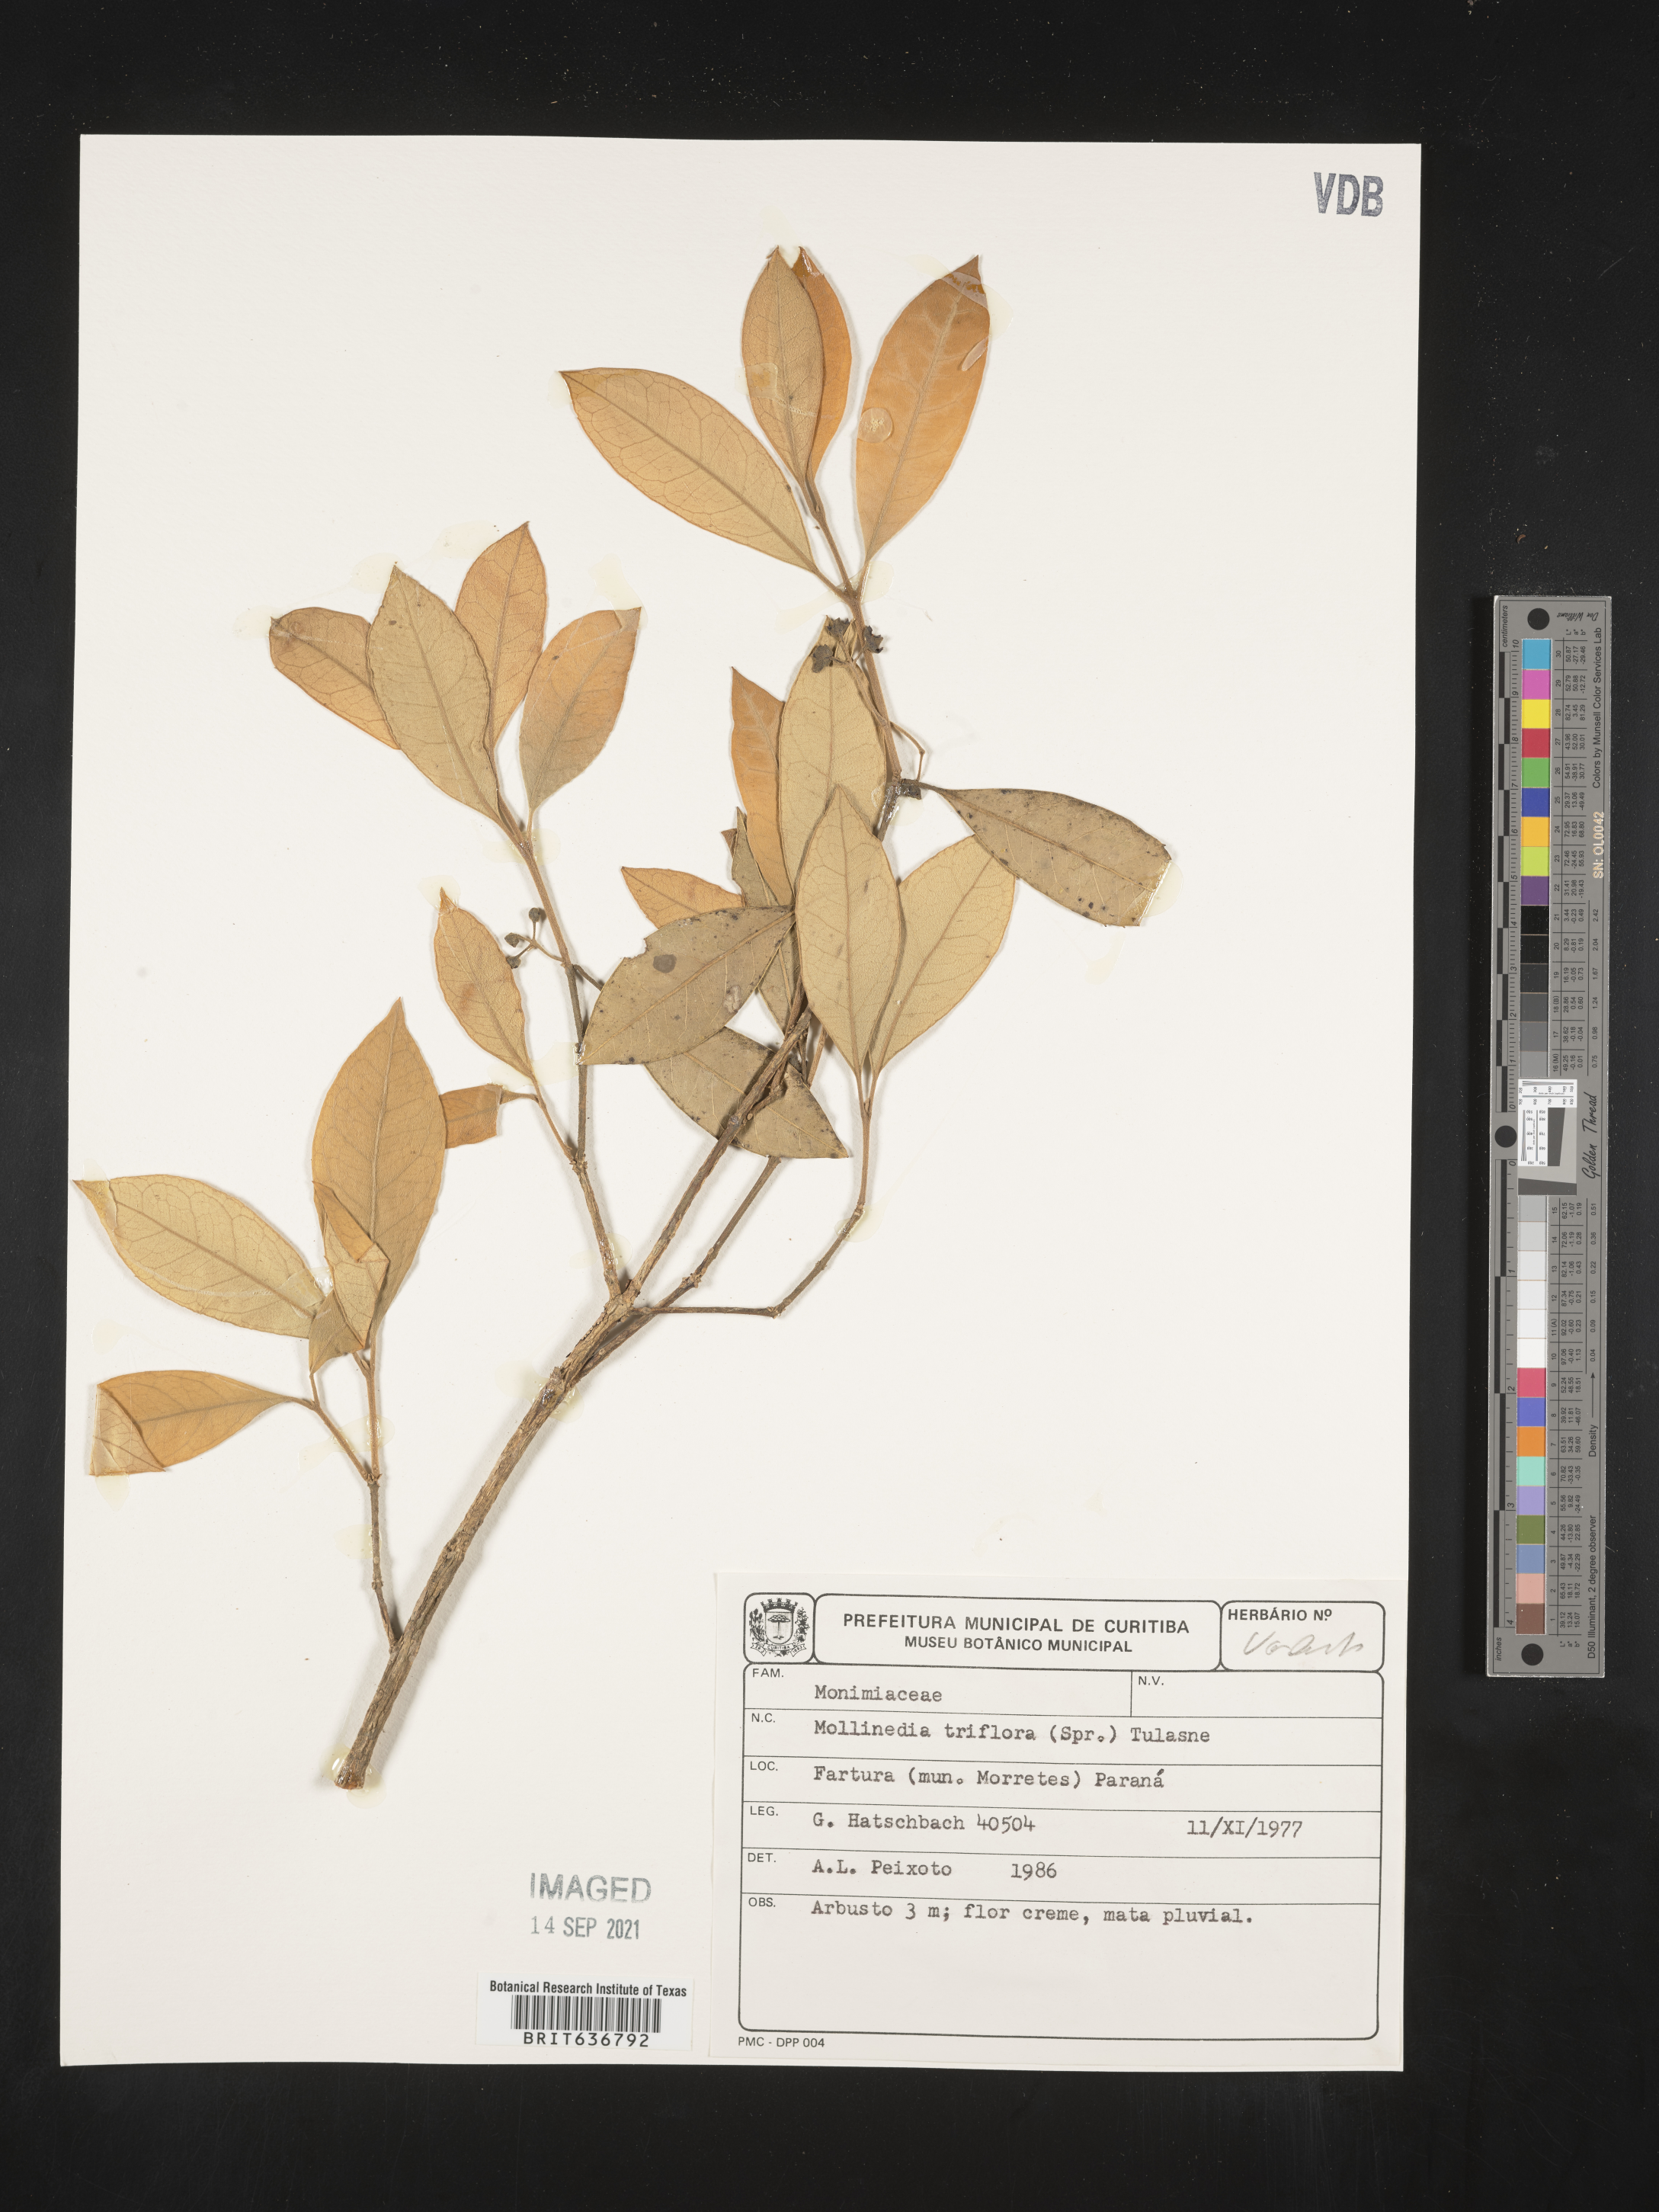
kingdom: Plantae
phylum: Tracheophyta
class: Magnoliopsida
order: Laurales
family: Monimiaceae
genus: Mollinedia
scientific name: Mollinedia
